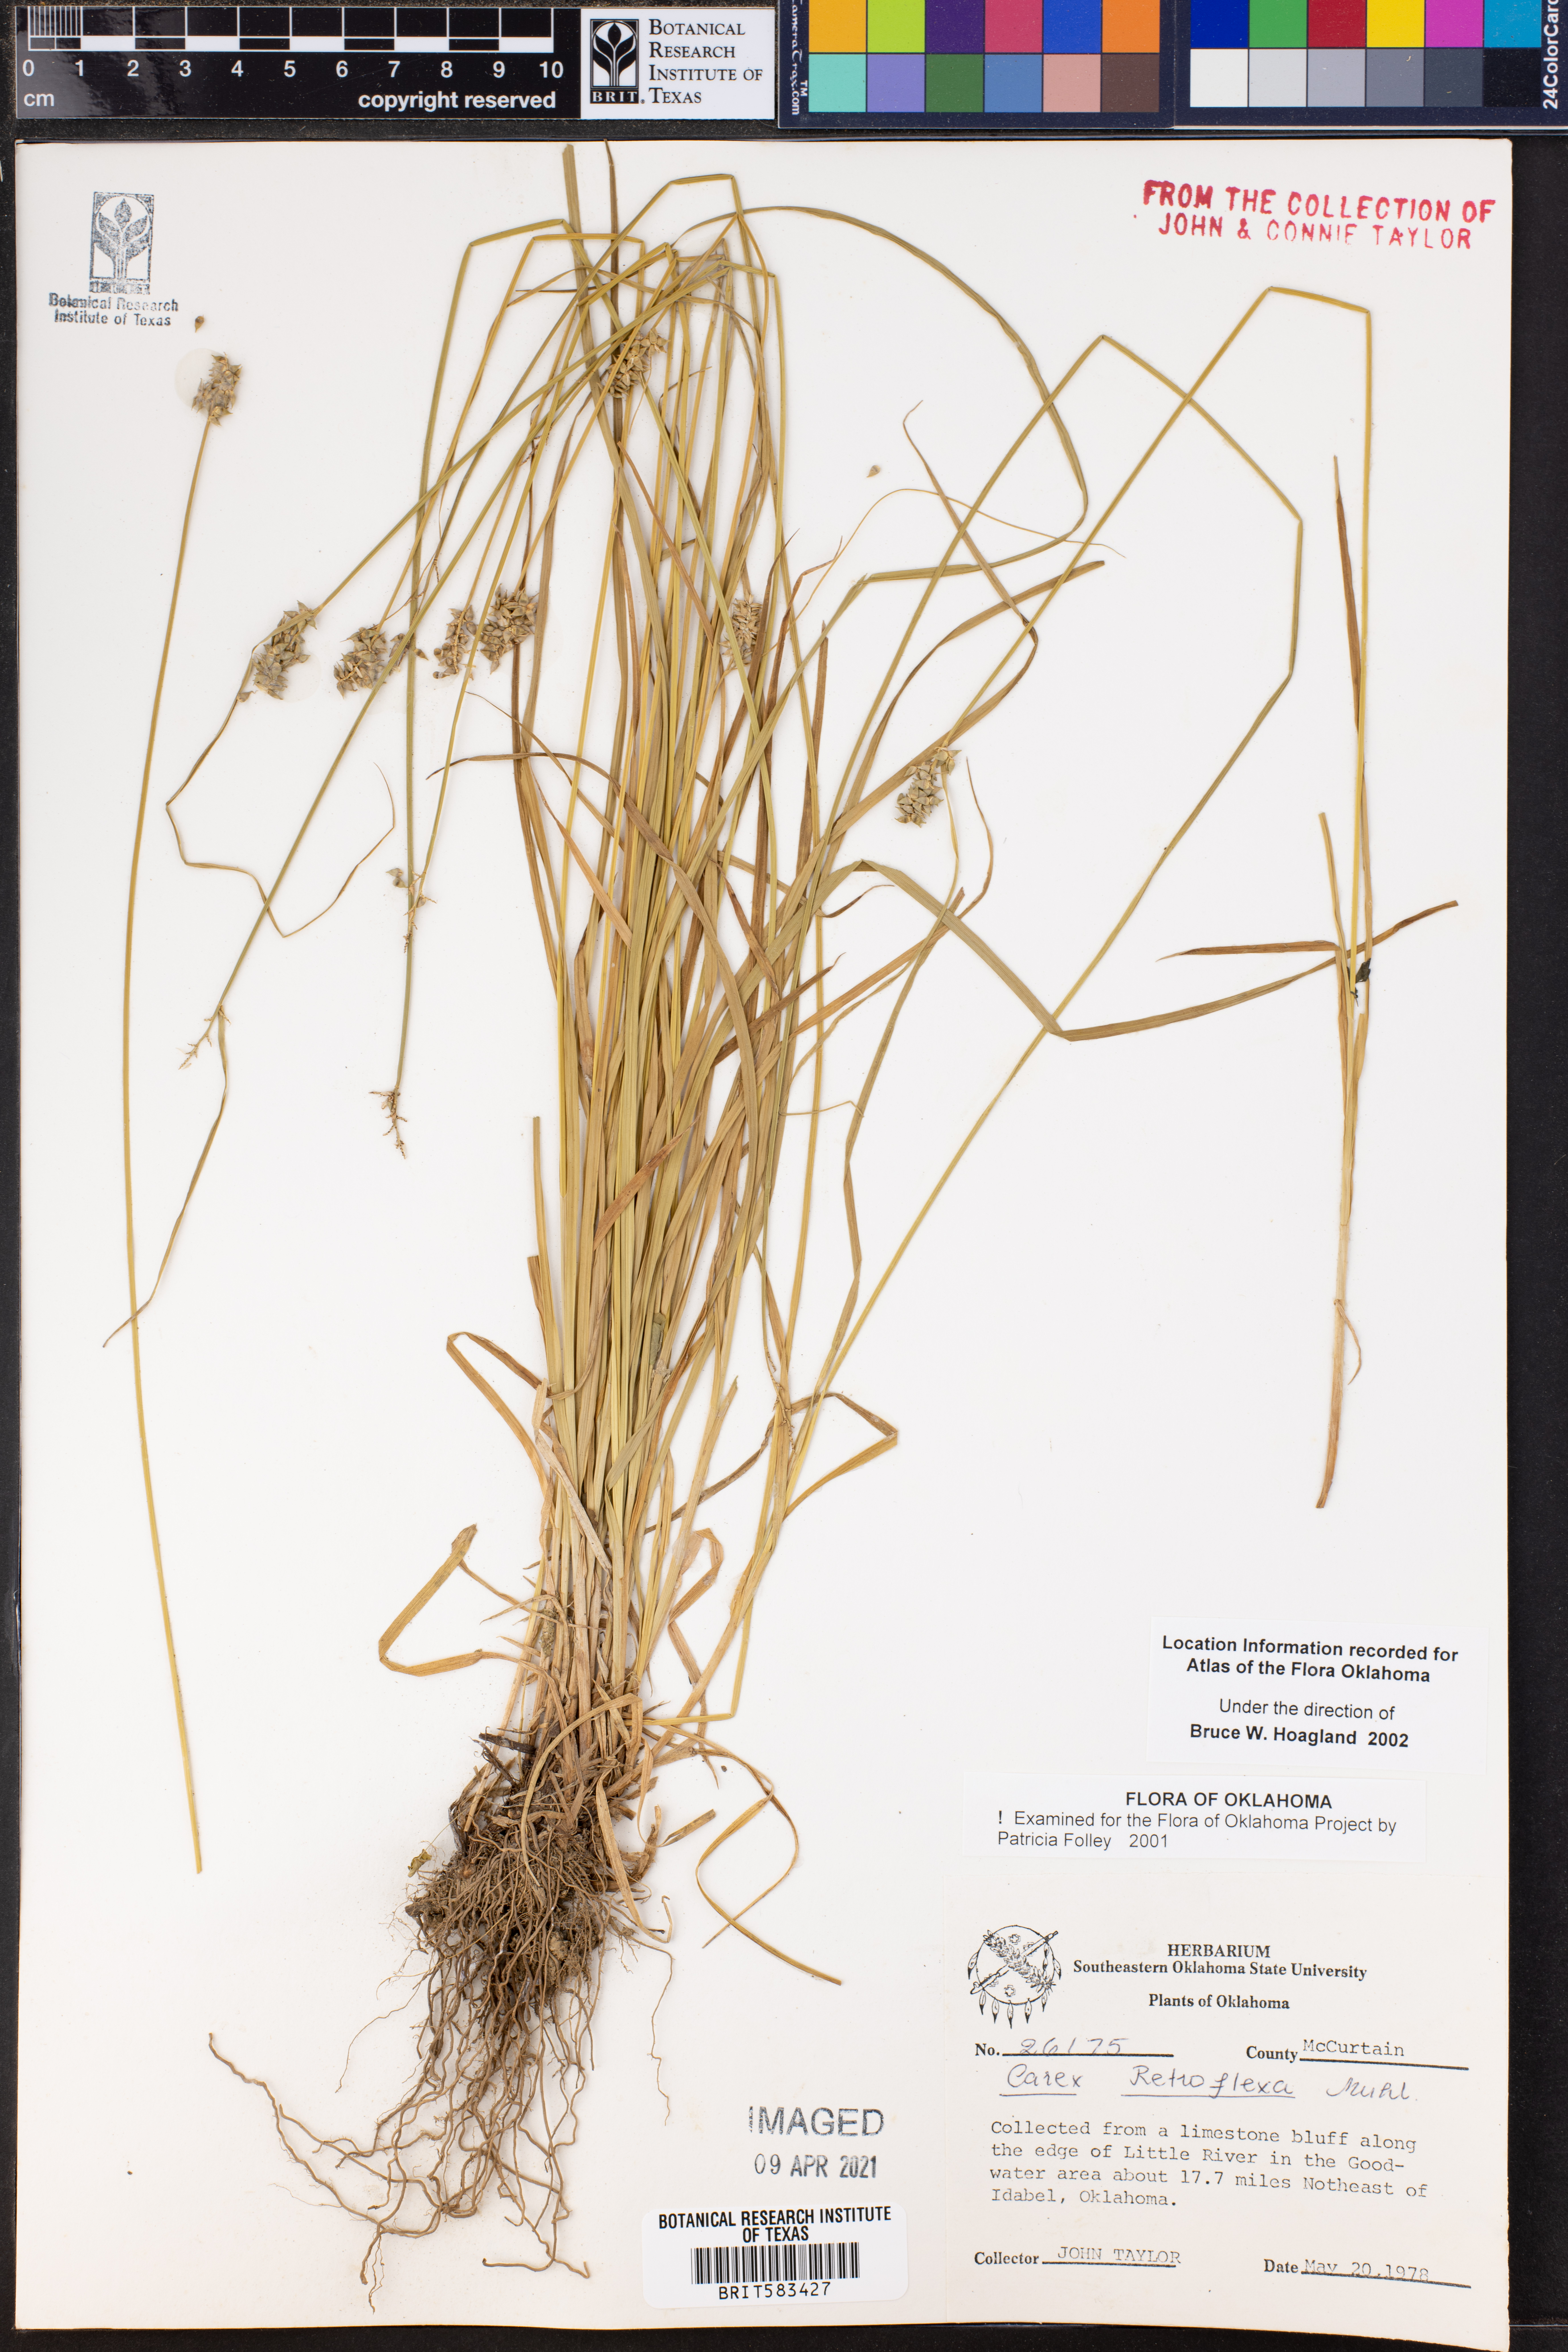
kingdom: Plantae
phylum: Tracheophyta
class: Liliopsida
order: Poales
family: Cyperaceae
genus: Carex
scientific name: Carex retroflexa
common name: Reflexed sedge
